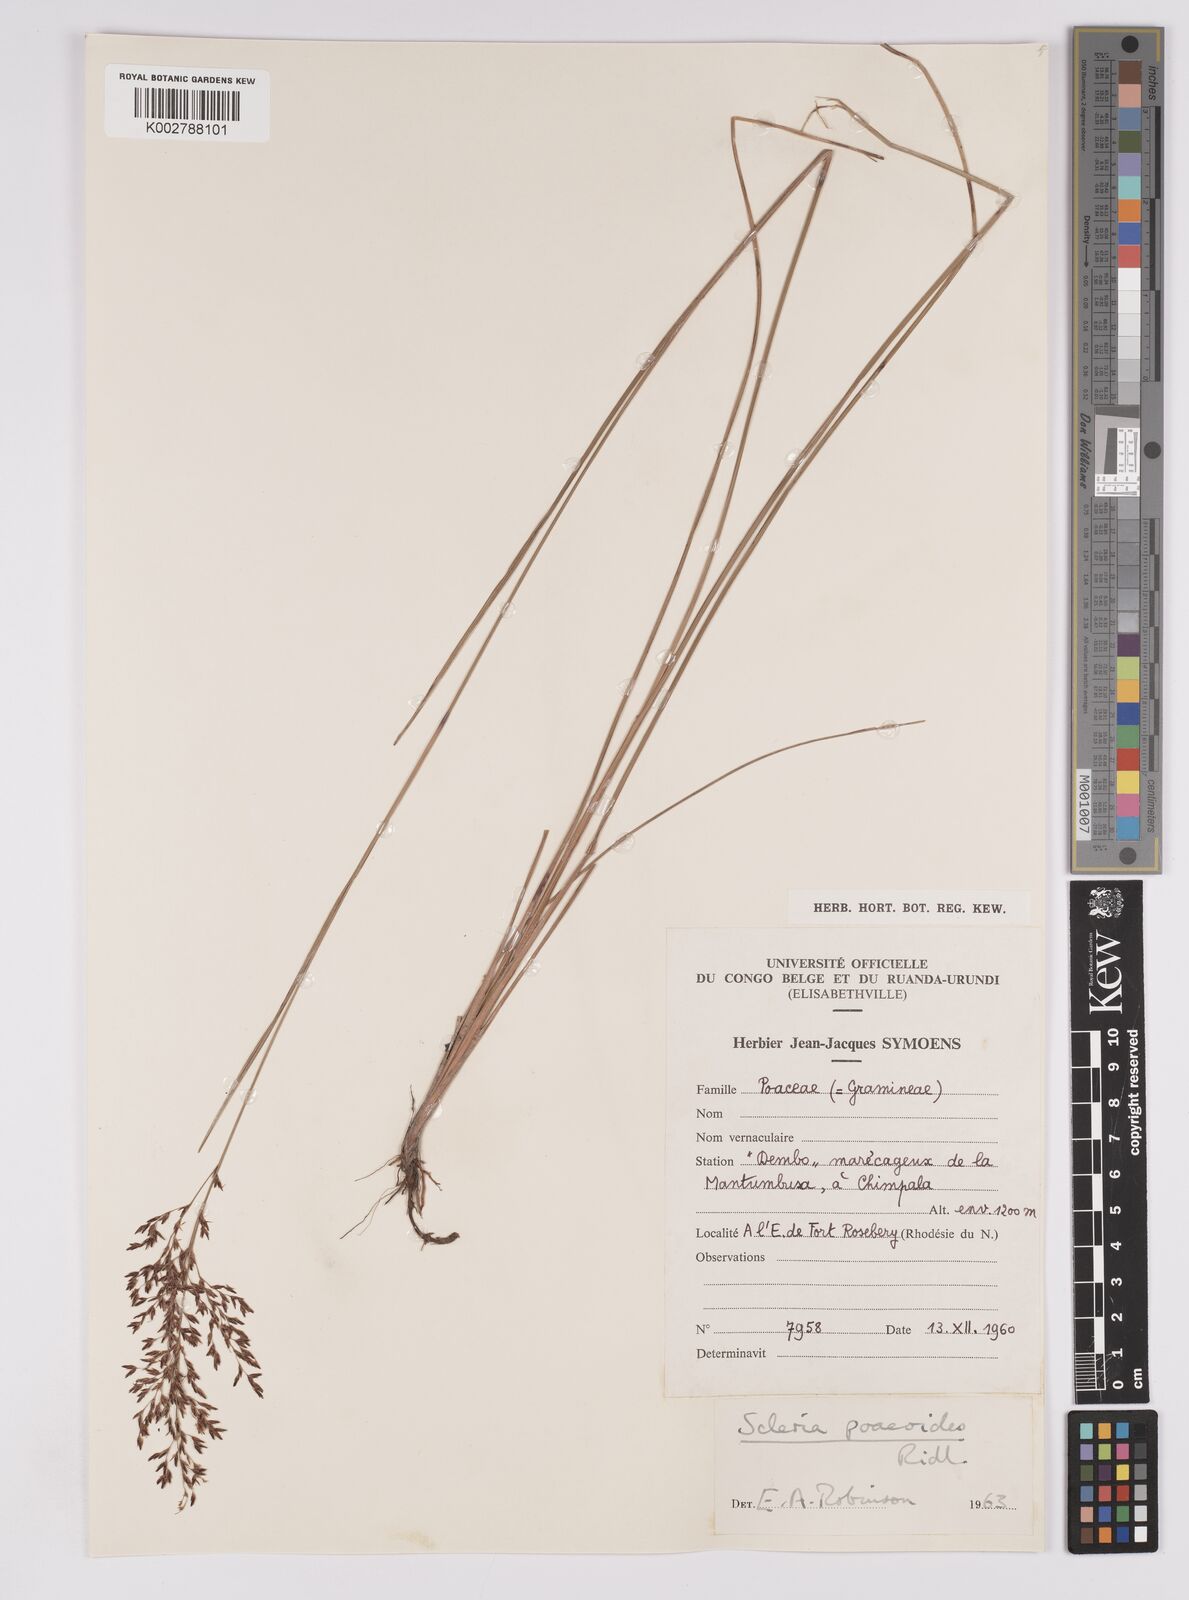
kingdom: Plantae
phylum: Tracheophyta
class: Liliopsida
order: Poales
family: Cyperaceae
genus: Scleria
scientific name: Scleria pooides
